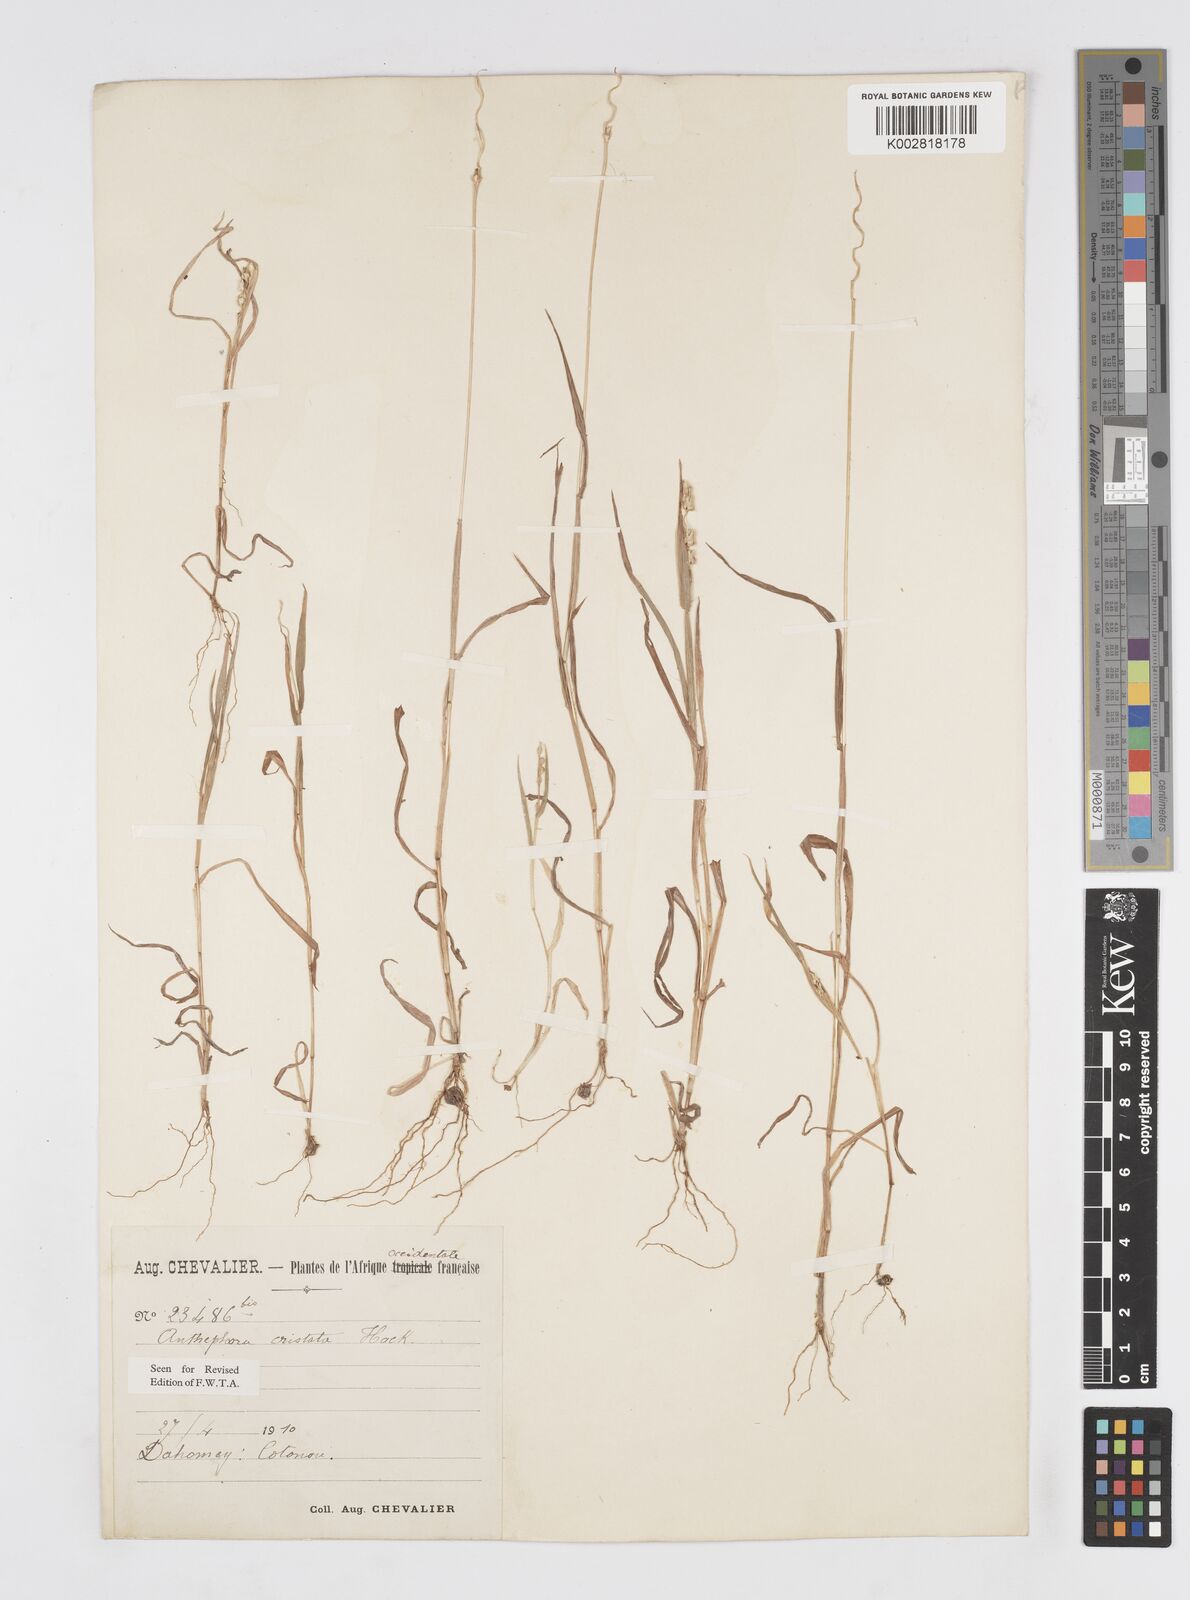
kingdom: Plantae
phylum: Tracheophyta
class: Liliopsida
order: Poales
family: Poaceae
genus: Anthephora
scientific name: Anthephora cristata
